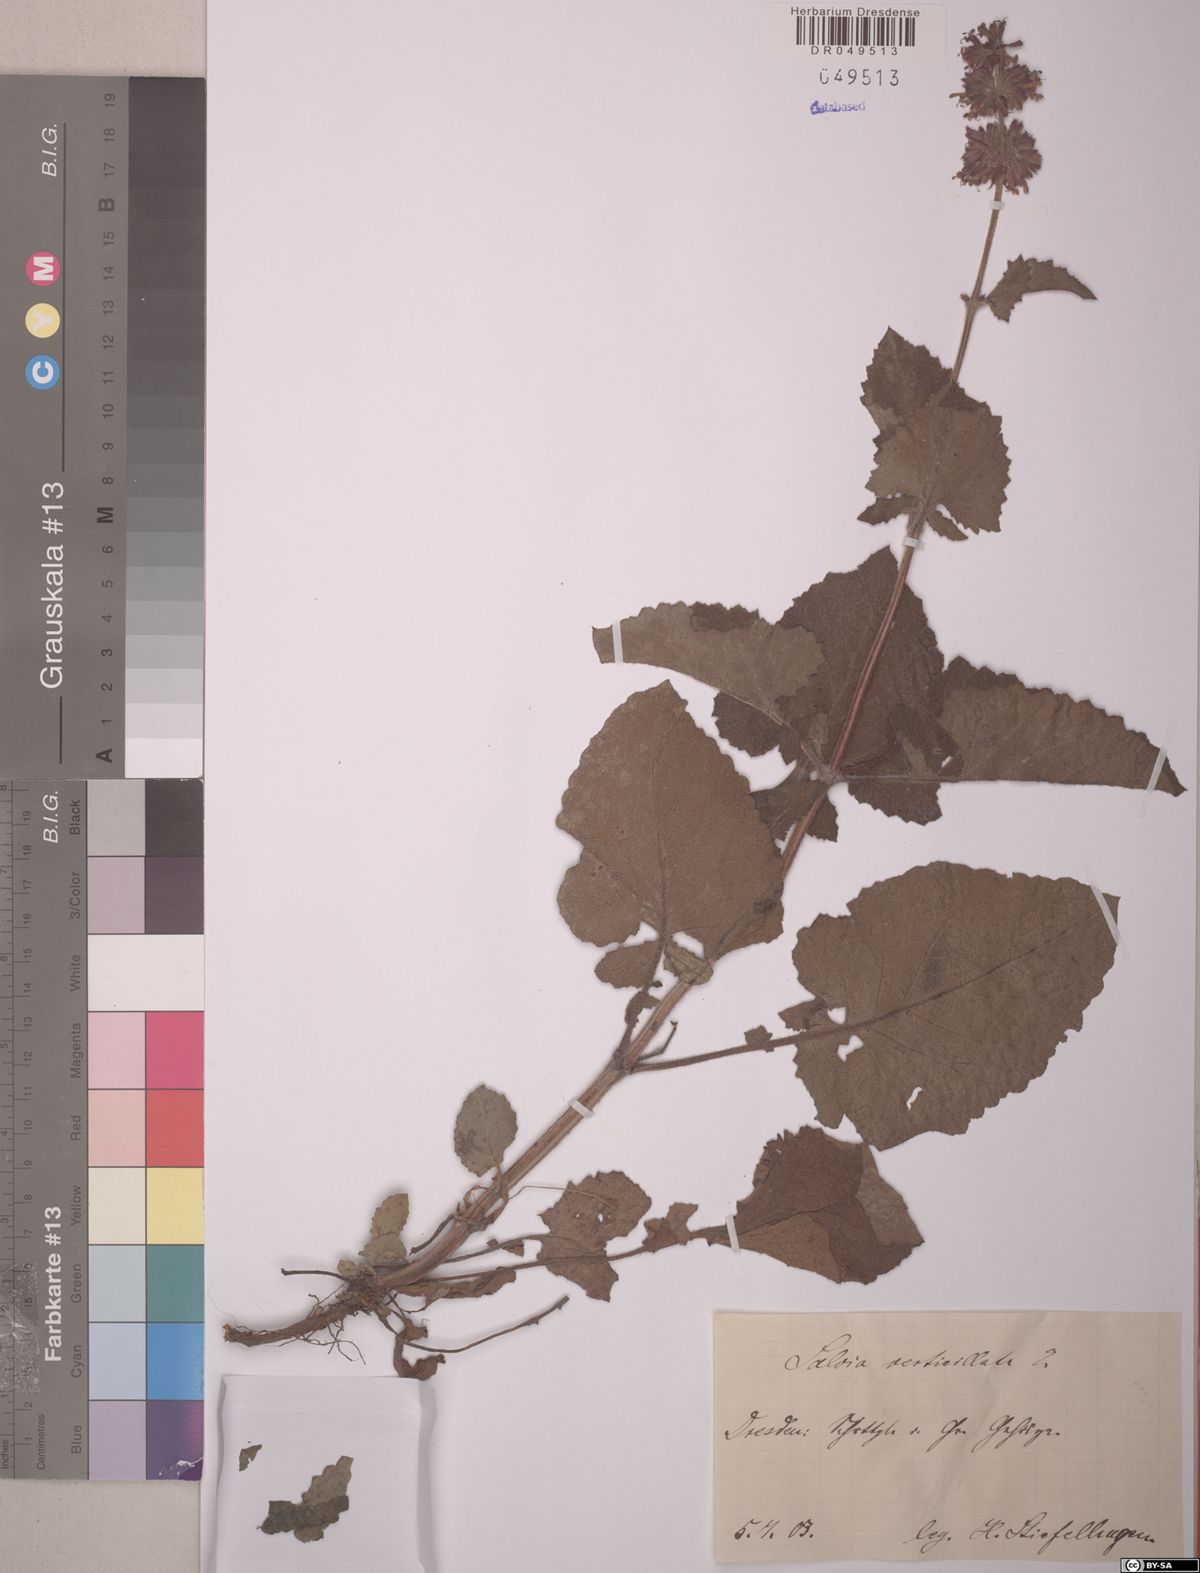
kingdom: Plantae
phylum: Tracheophyta
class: Magnoliopsida
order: Lamiales
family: Lamiaceae
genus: Salvia
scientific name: Salvia verticillata
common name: Whorled clary
